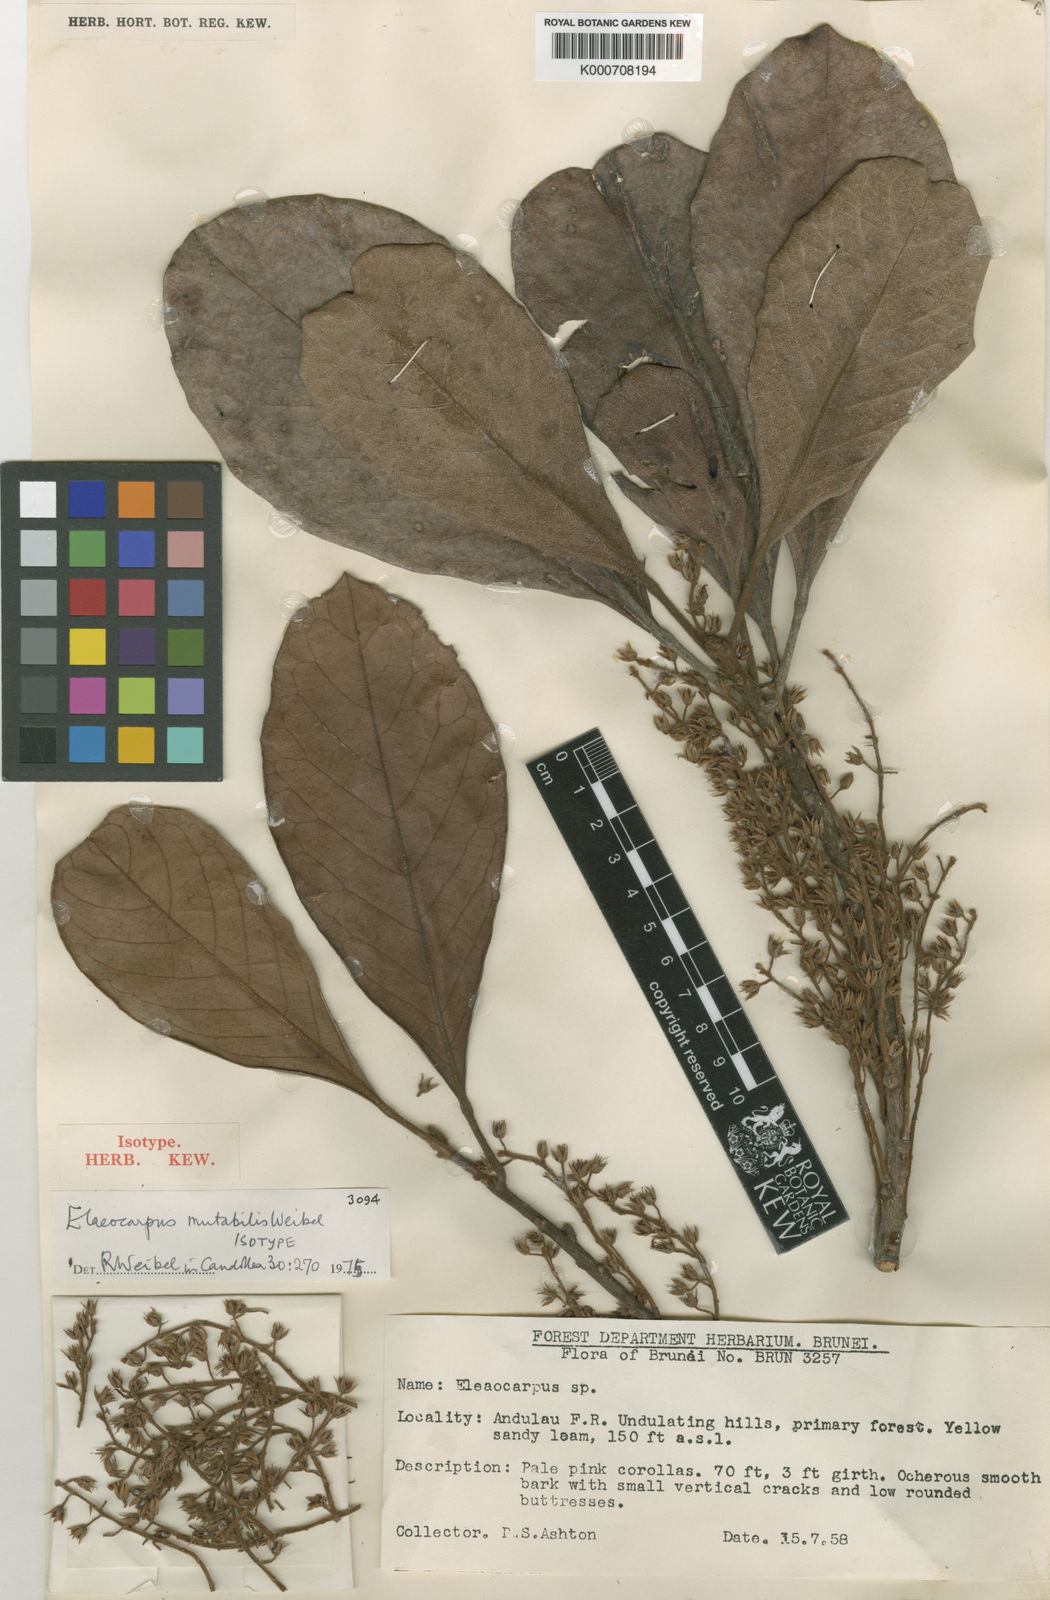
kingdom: Plantae
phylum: Tracheophyta
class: Magnoliopsida
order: Oxalidales
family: Elaeocarpaceae
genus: Elaeocarpus
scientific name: Elaeocarpus mutabilis
